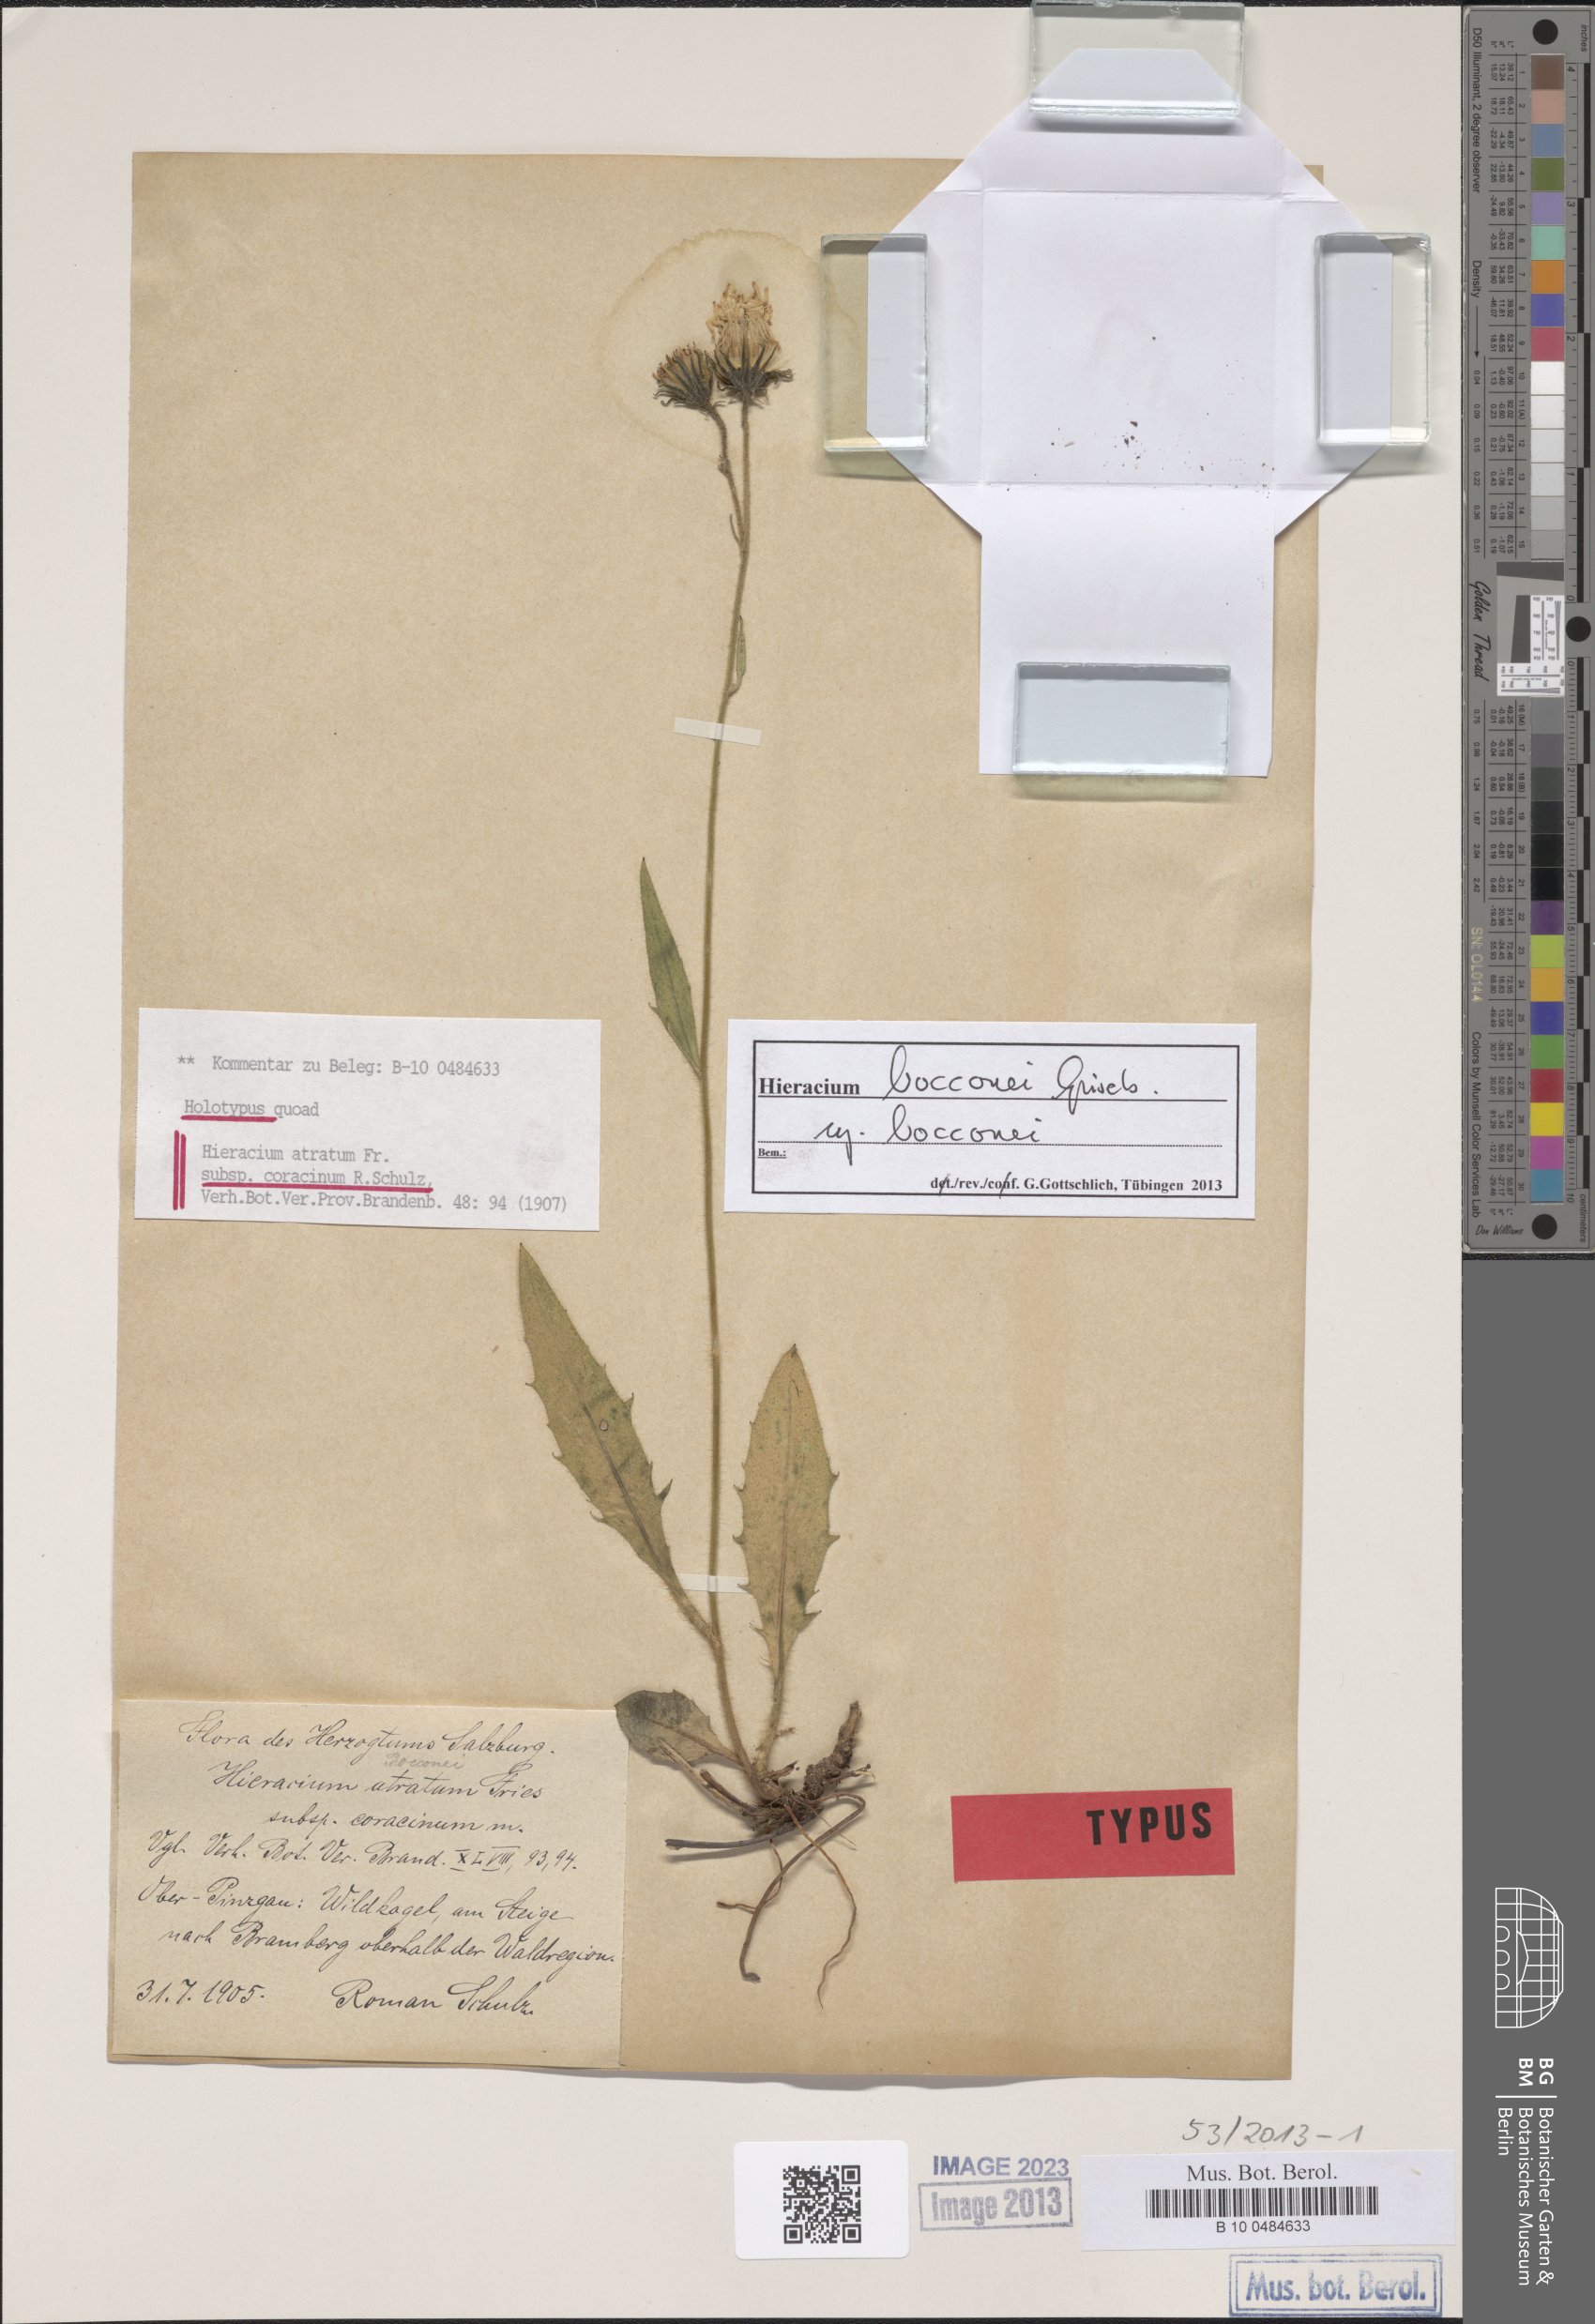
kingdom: Plantae
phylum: Tracheophyta
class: Magnoliopsida
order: Asterales
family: Asteraceae
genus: Hieracium
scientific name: Hieracium bocconei
